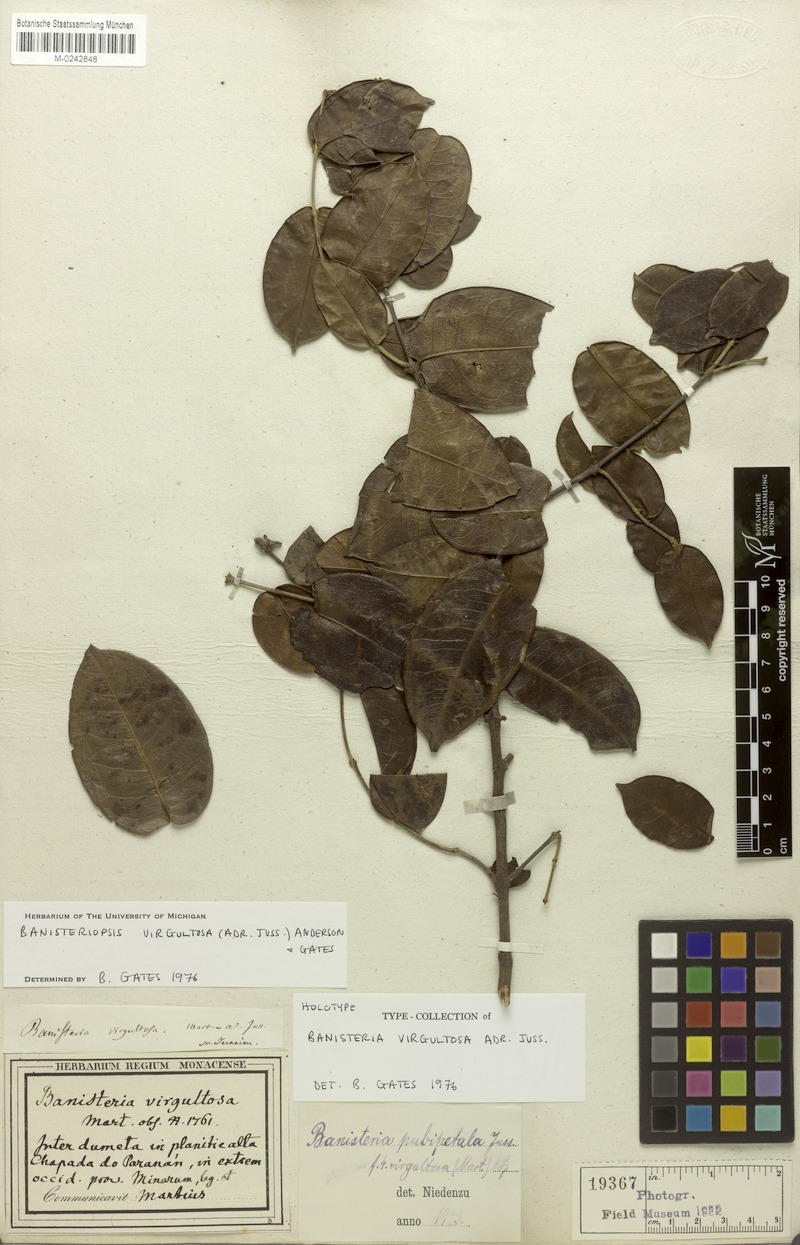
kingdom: Plantae
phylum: Tracheophyta
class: Magnoliopsida
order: Malpighiales
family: Malpighiaceae
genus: Diplopterys
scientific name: Diplopterys virgultosa
